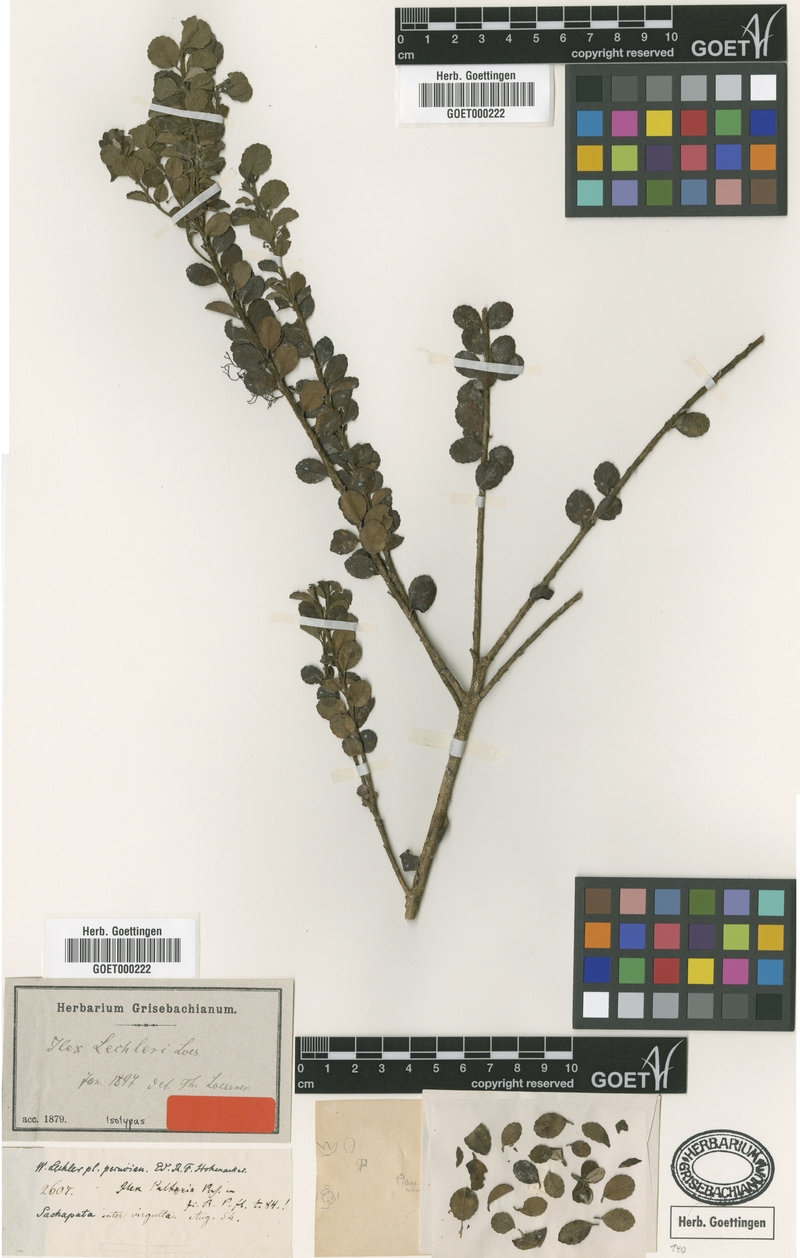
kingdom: Plantae
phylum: Tracheophyta
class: Magnoliopsida
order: Aquifoliales
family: Aquifoliaceae
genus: Ilex
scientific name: Ilex ovalis
